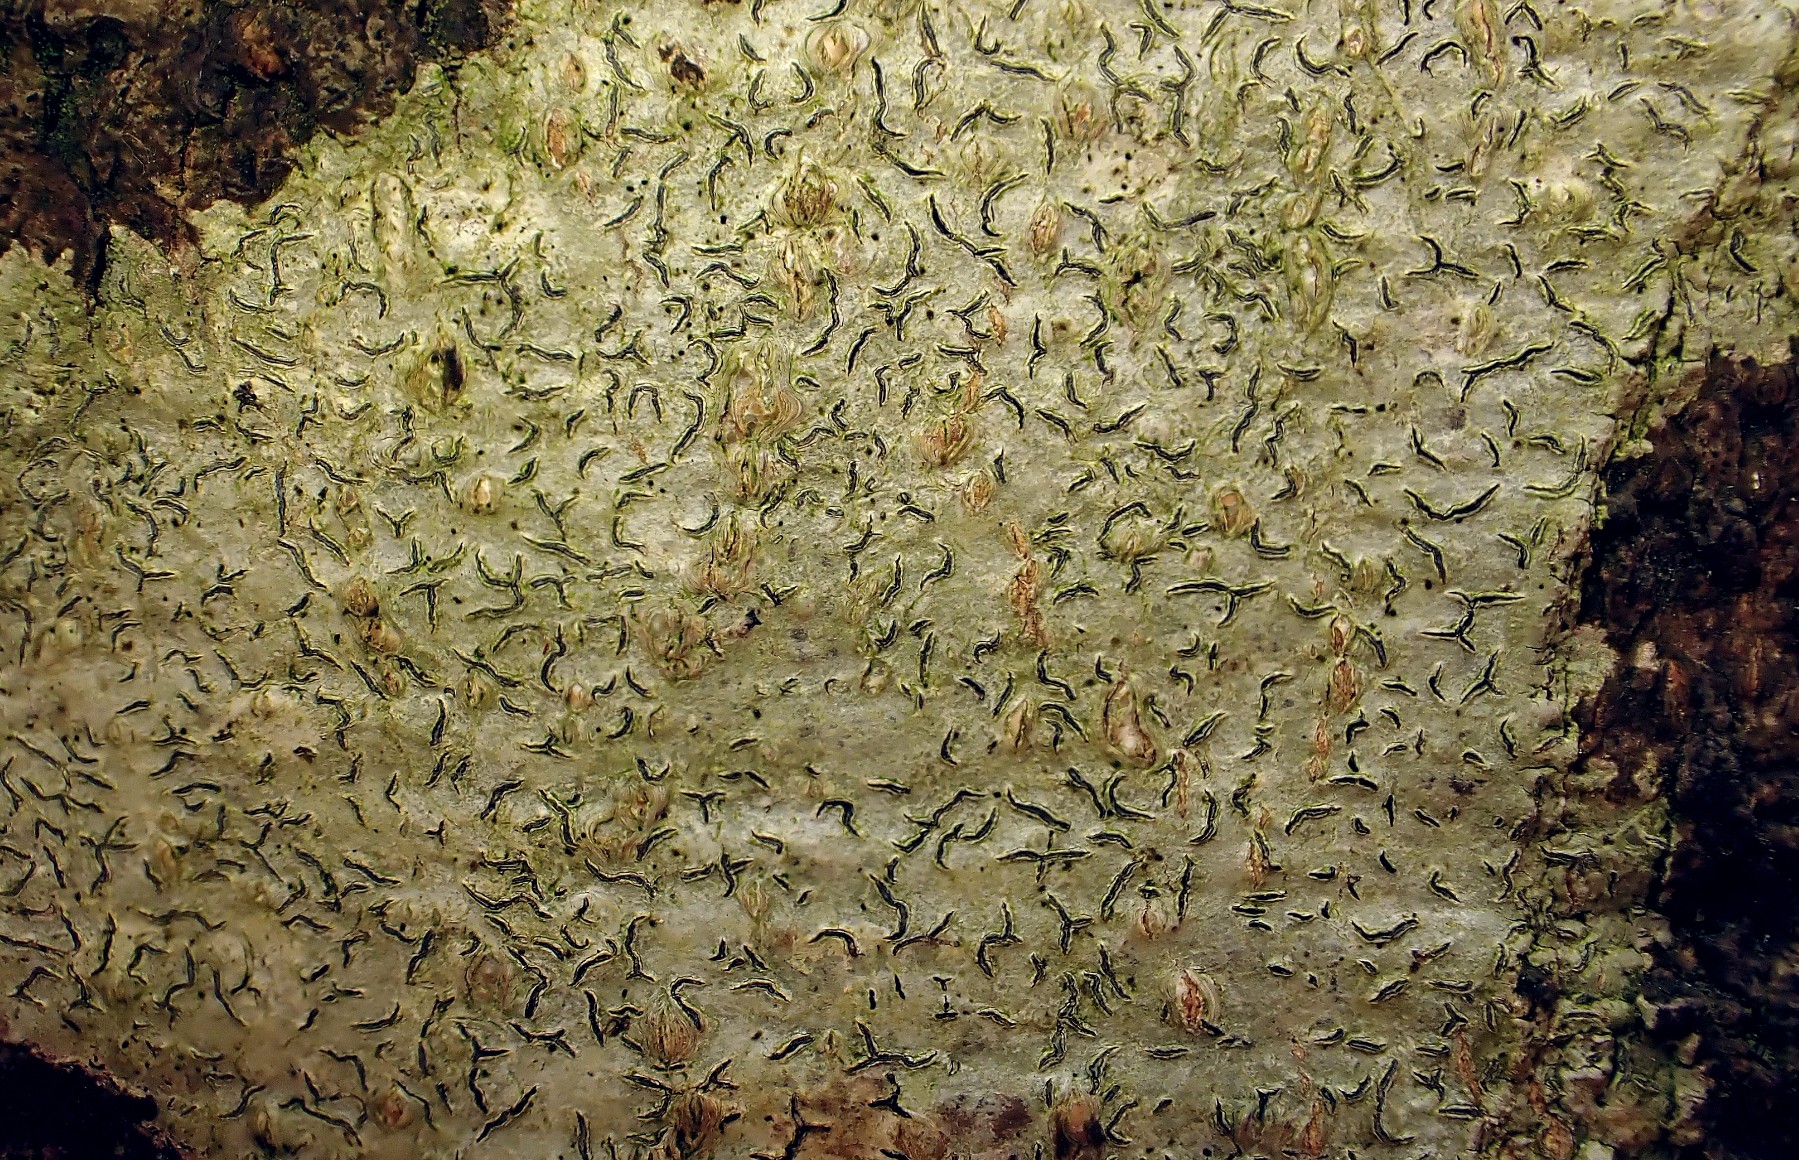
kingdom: Fungi
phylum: Ascomycota
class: Lecanoromycetes
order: Ostropales
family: Graphidaceae
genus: Graphis
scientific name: Graphis scripta
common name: almindelig skriftlav
